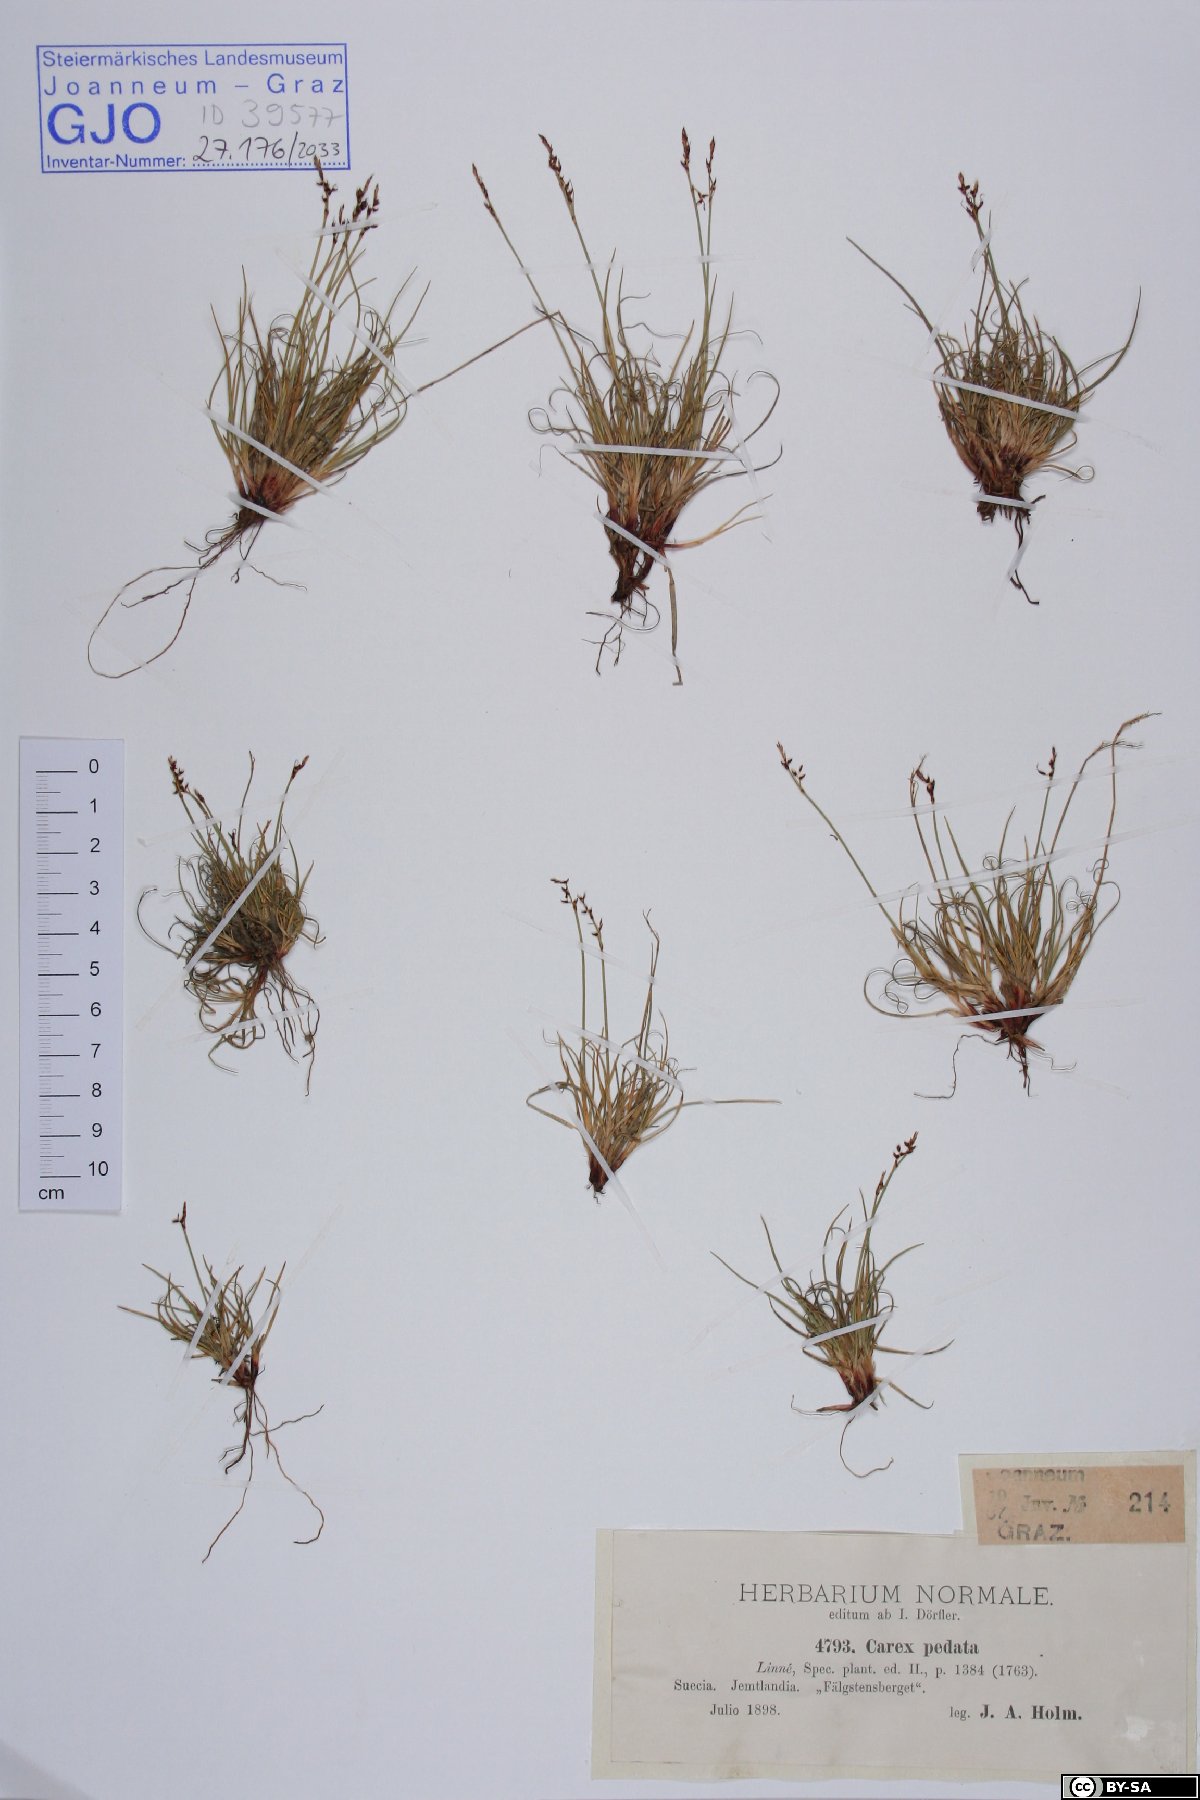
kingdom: Plantae
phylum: Tracheophyta
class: Liliopsida
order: Poales
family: Cyperaceae
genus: Carex
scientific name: Carex ornithopoda
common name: Bird's-foot sedge
